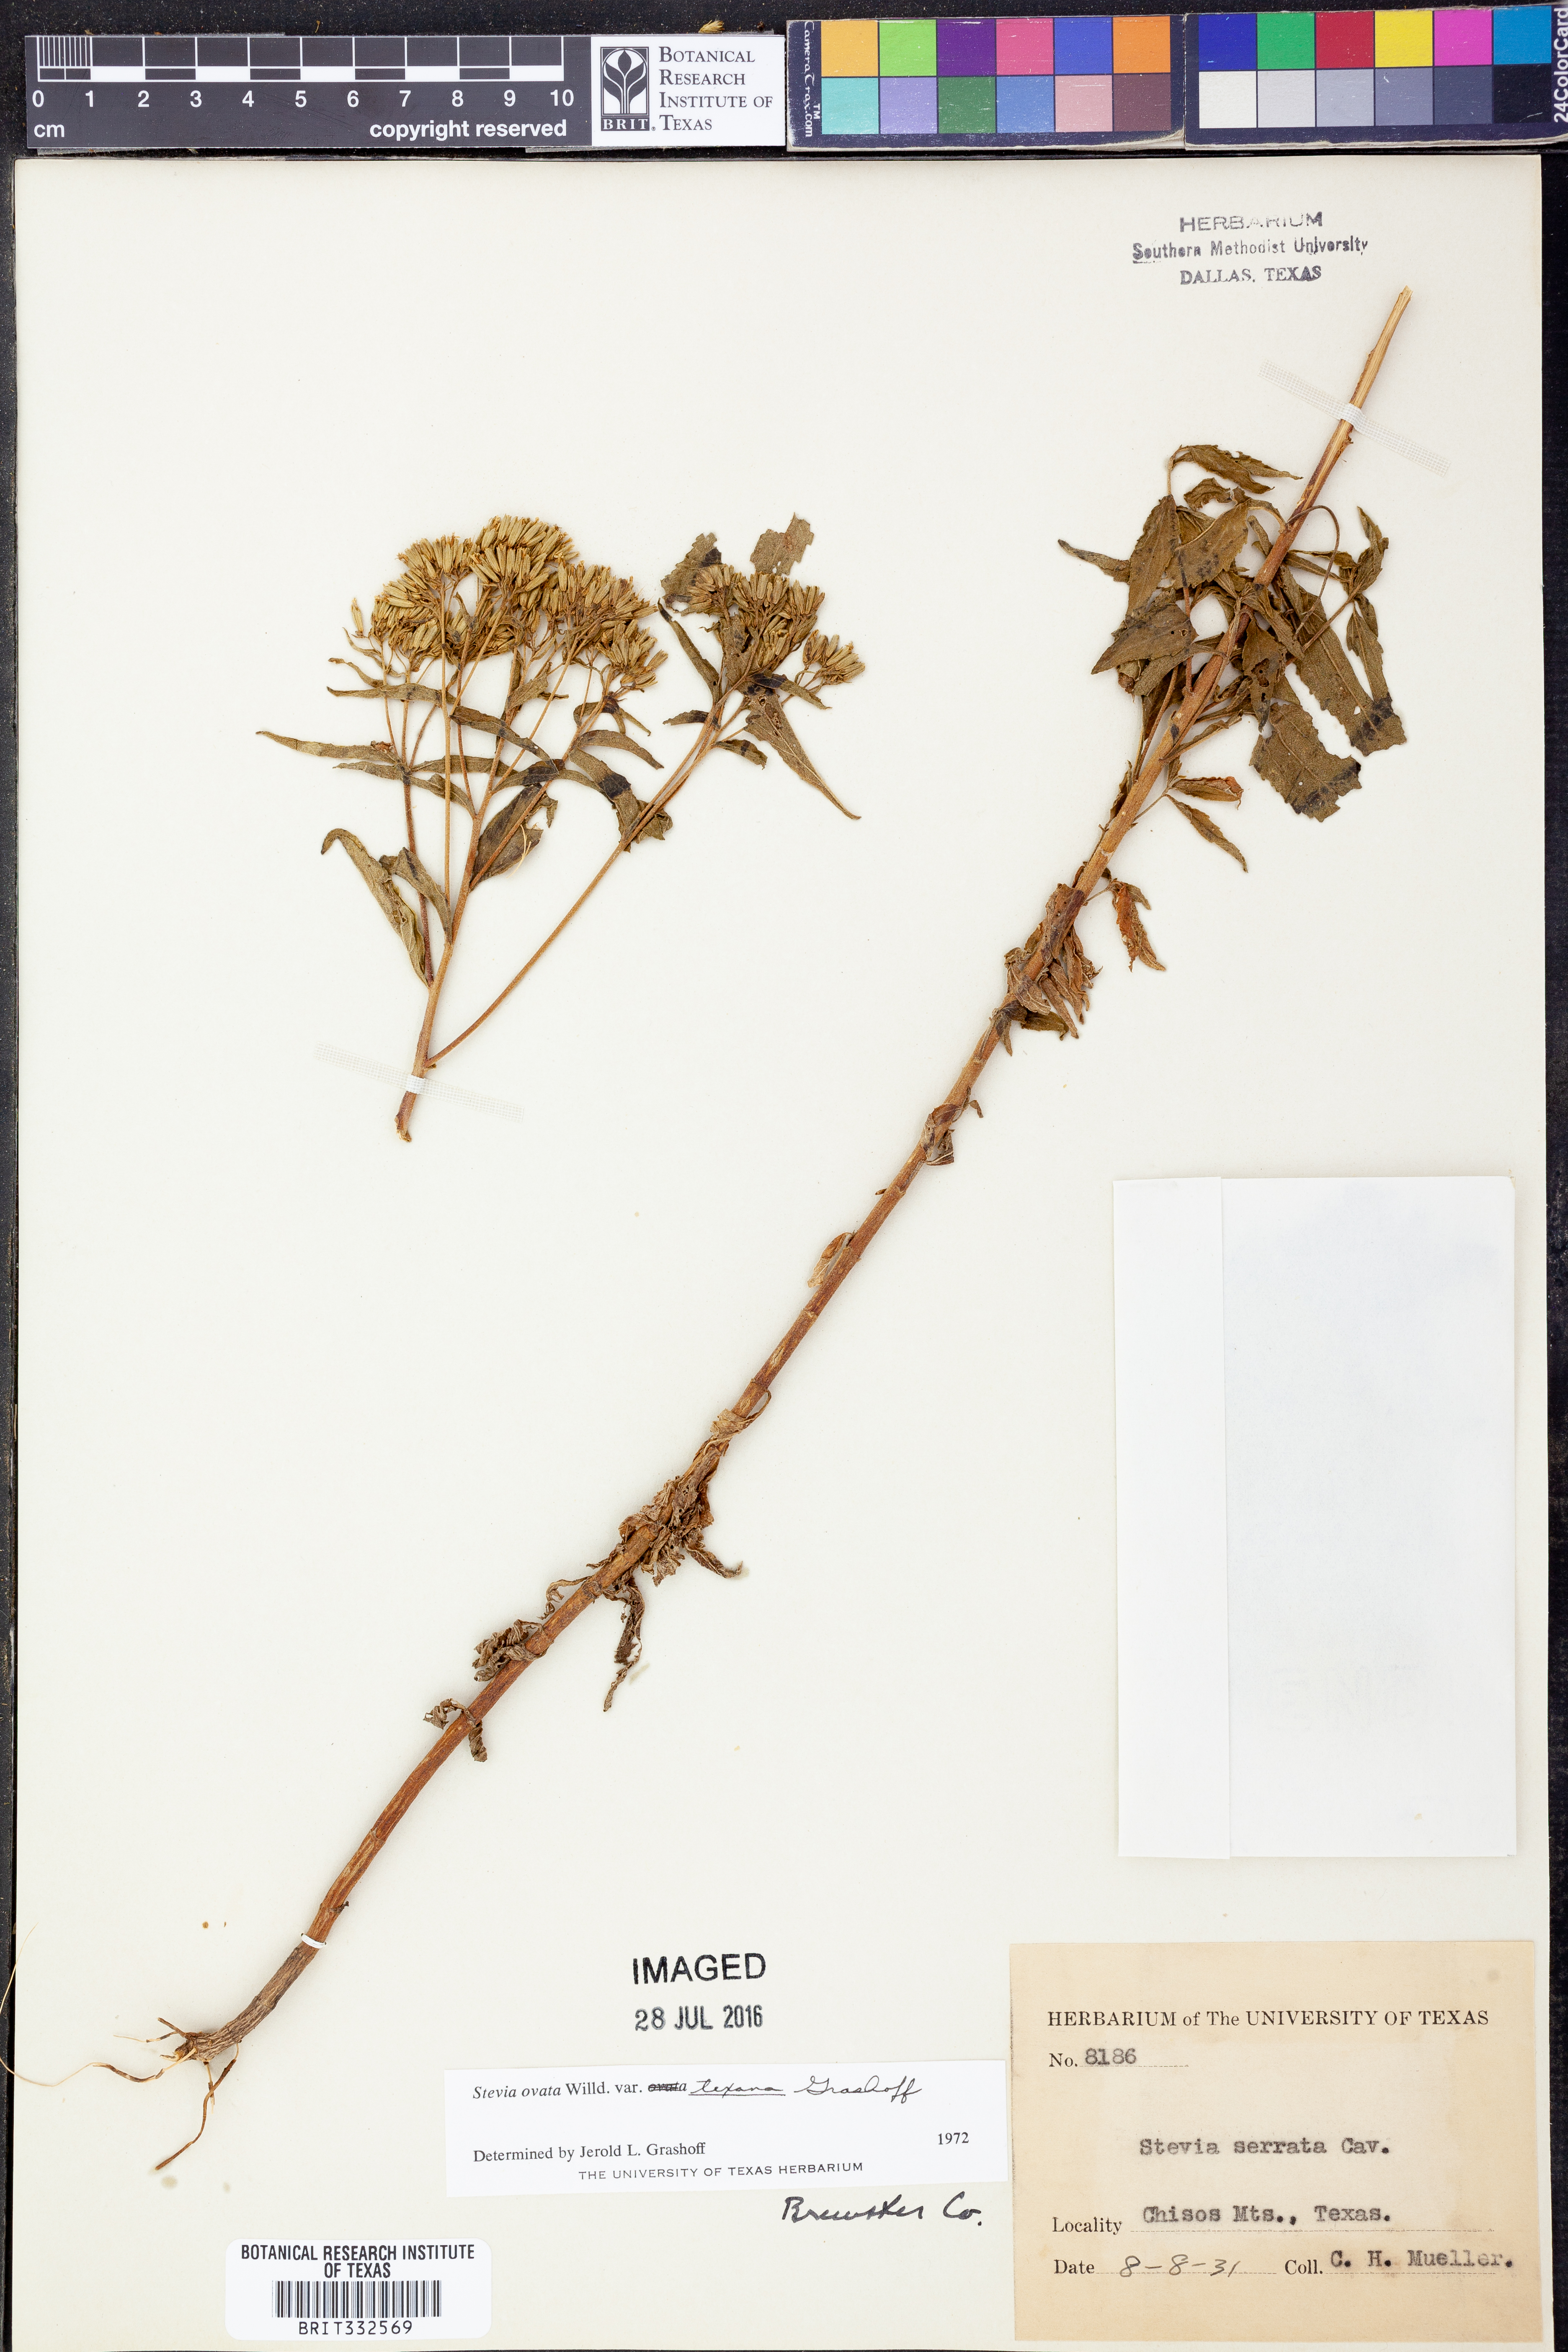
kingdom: Plantae
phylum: Tracheophyta
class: Magnoliopsida
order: Asterales
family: Asteraceae
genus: Stevia
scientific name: Stevia ovata
